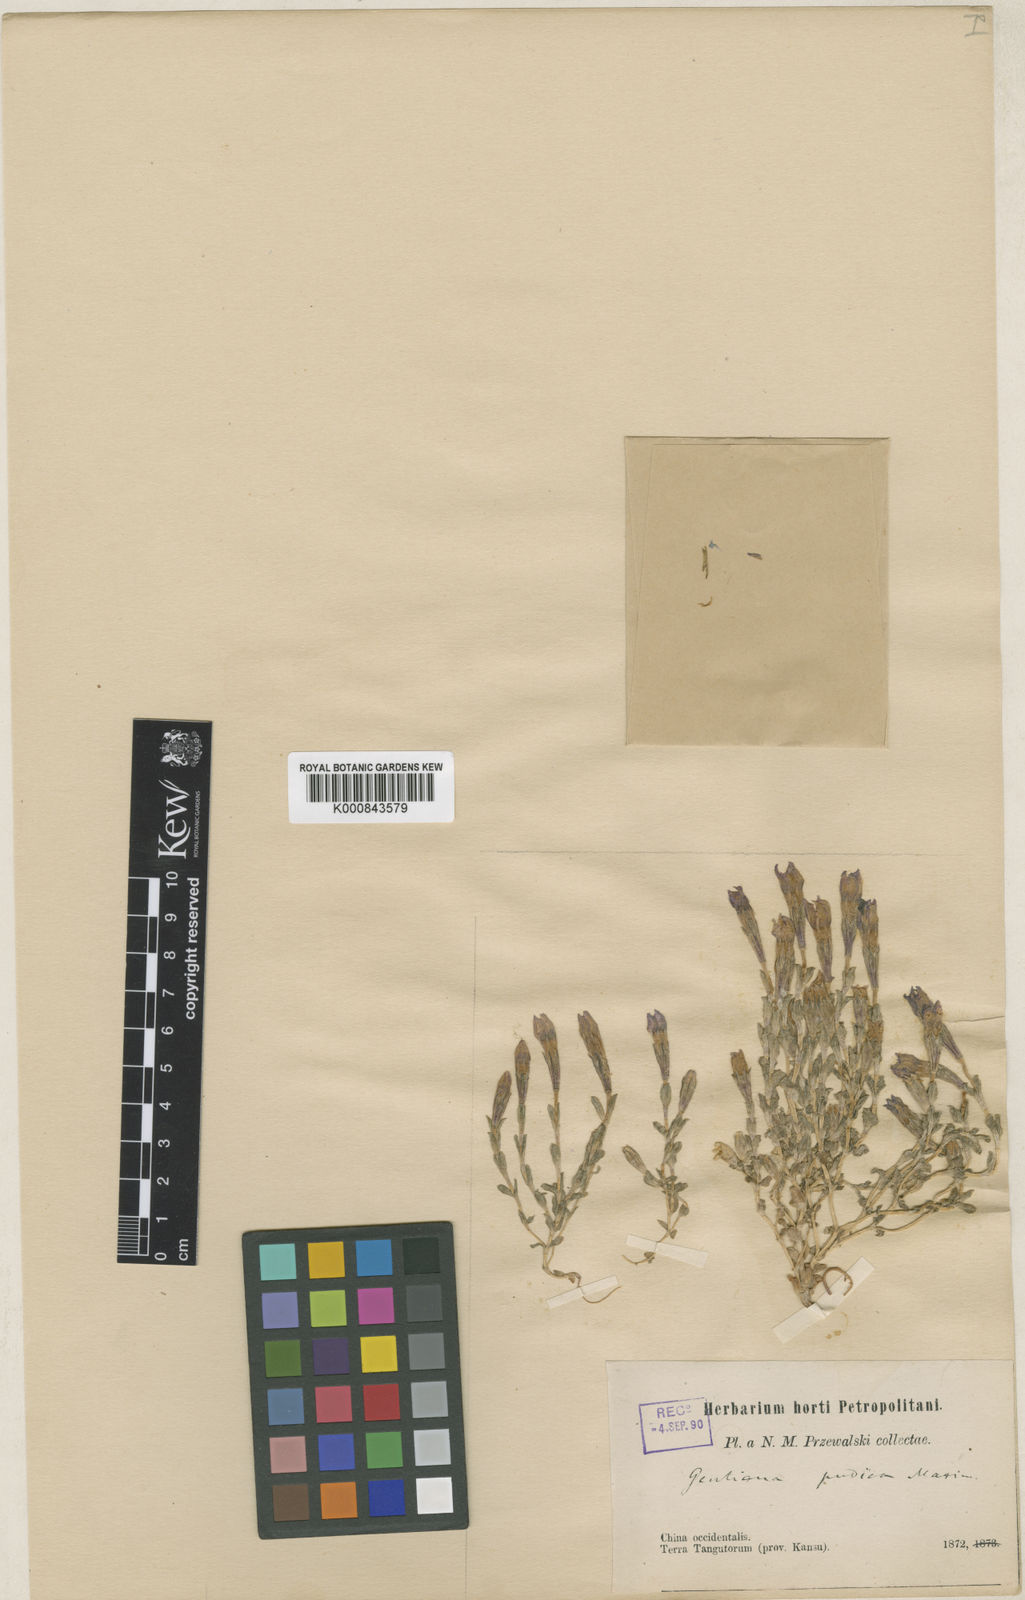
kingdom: Plantae
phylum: Tracheophyta
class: Magnoliopsida
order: Gentianales
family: Gentianaceae
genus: Gentiana
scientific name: Gentiana prostrata
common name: Moss gentian
